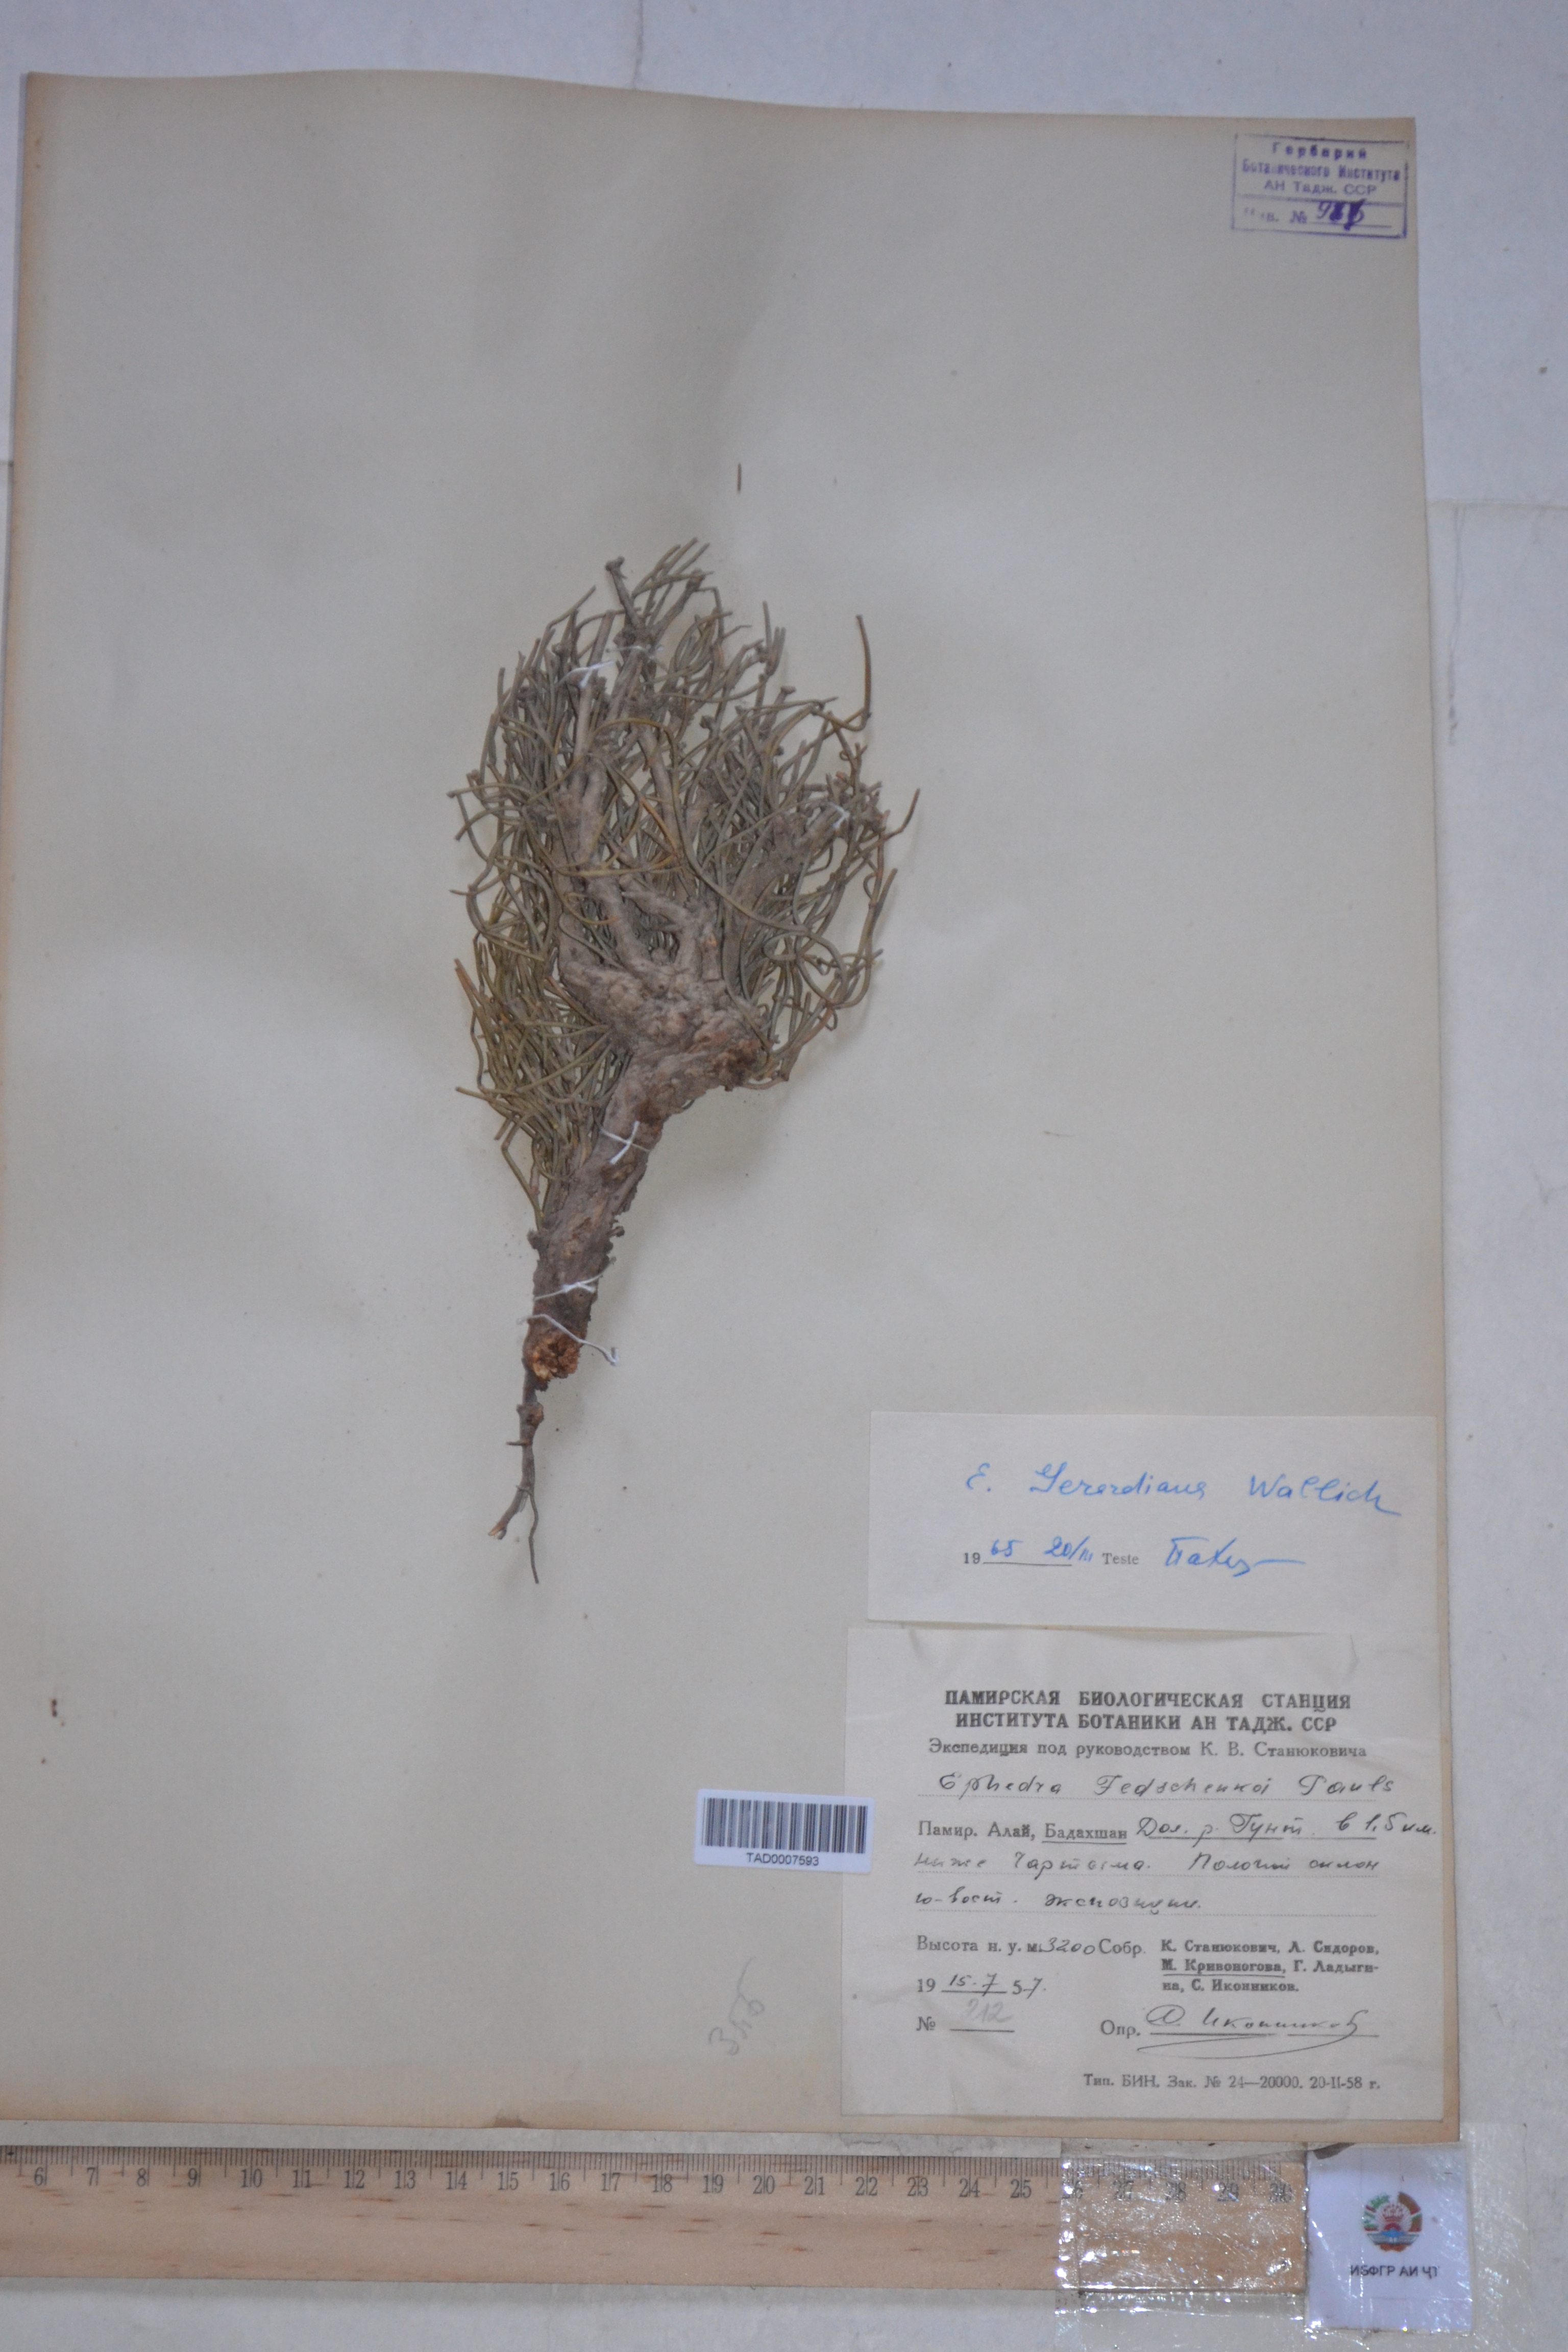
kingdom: Plantae
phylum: Tracheophyta
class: Gnetopsida
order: Ephedrales
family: Ephedraceae
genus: Ephedra
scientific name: Ephedra gerardiana
